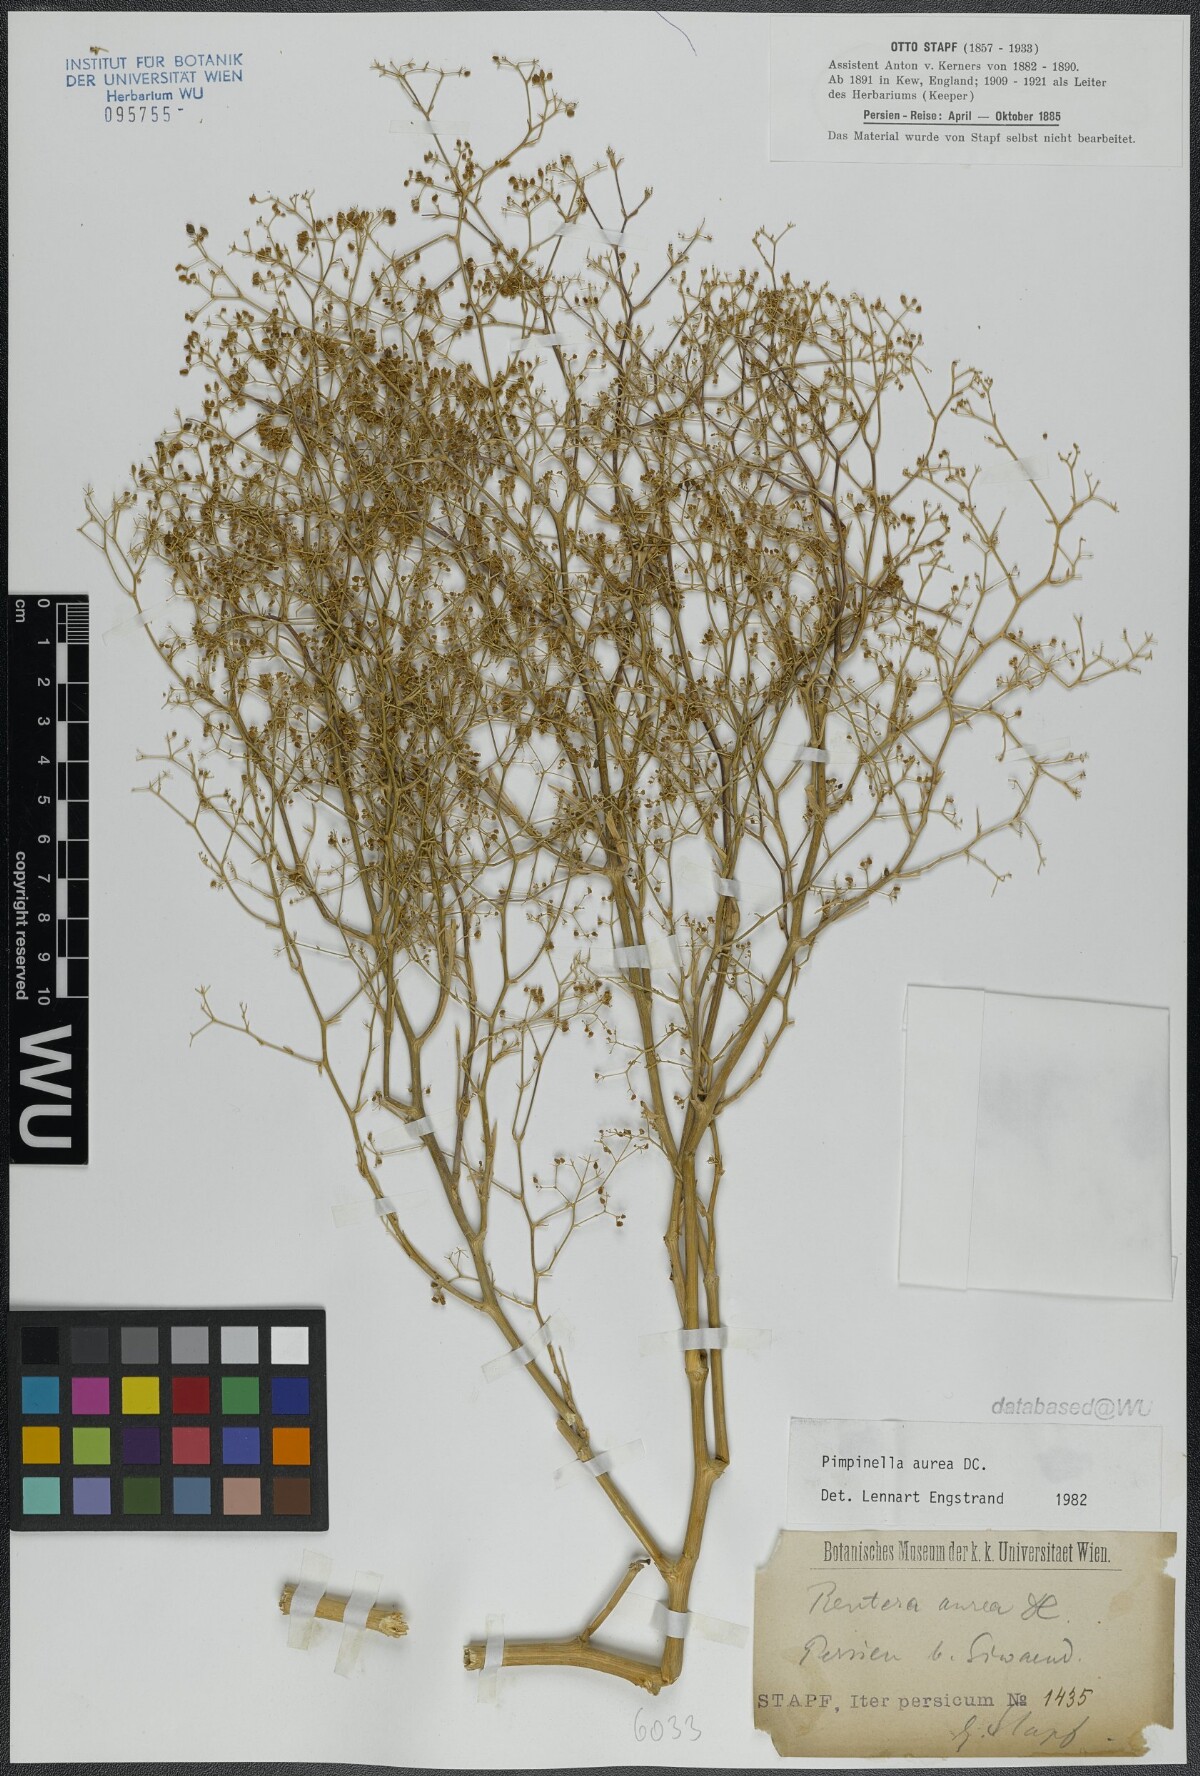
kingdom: Plantae
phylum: Tracheophyta
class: Magnoliopsida
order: Apiales
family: Apiaceae
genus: Pimpinella
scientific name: Pimpinella aurea
